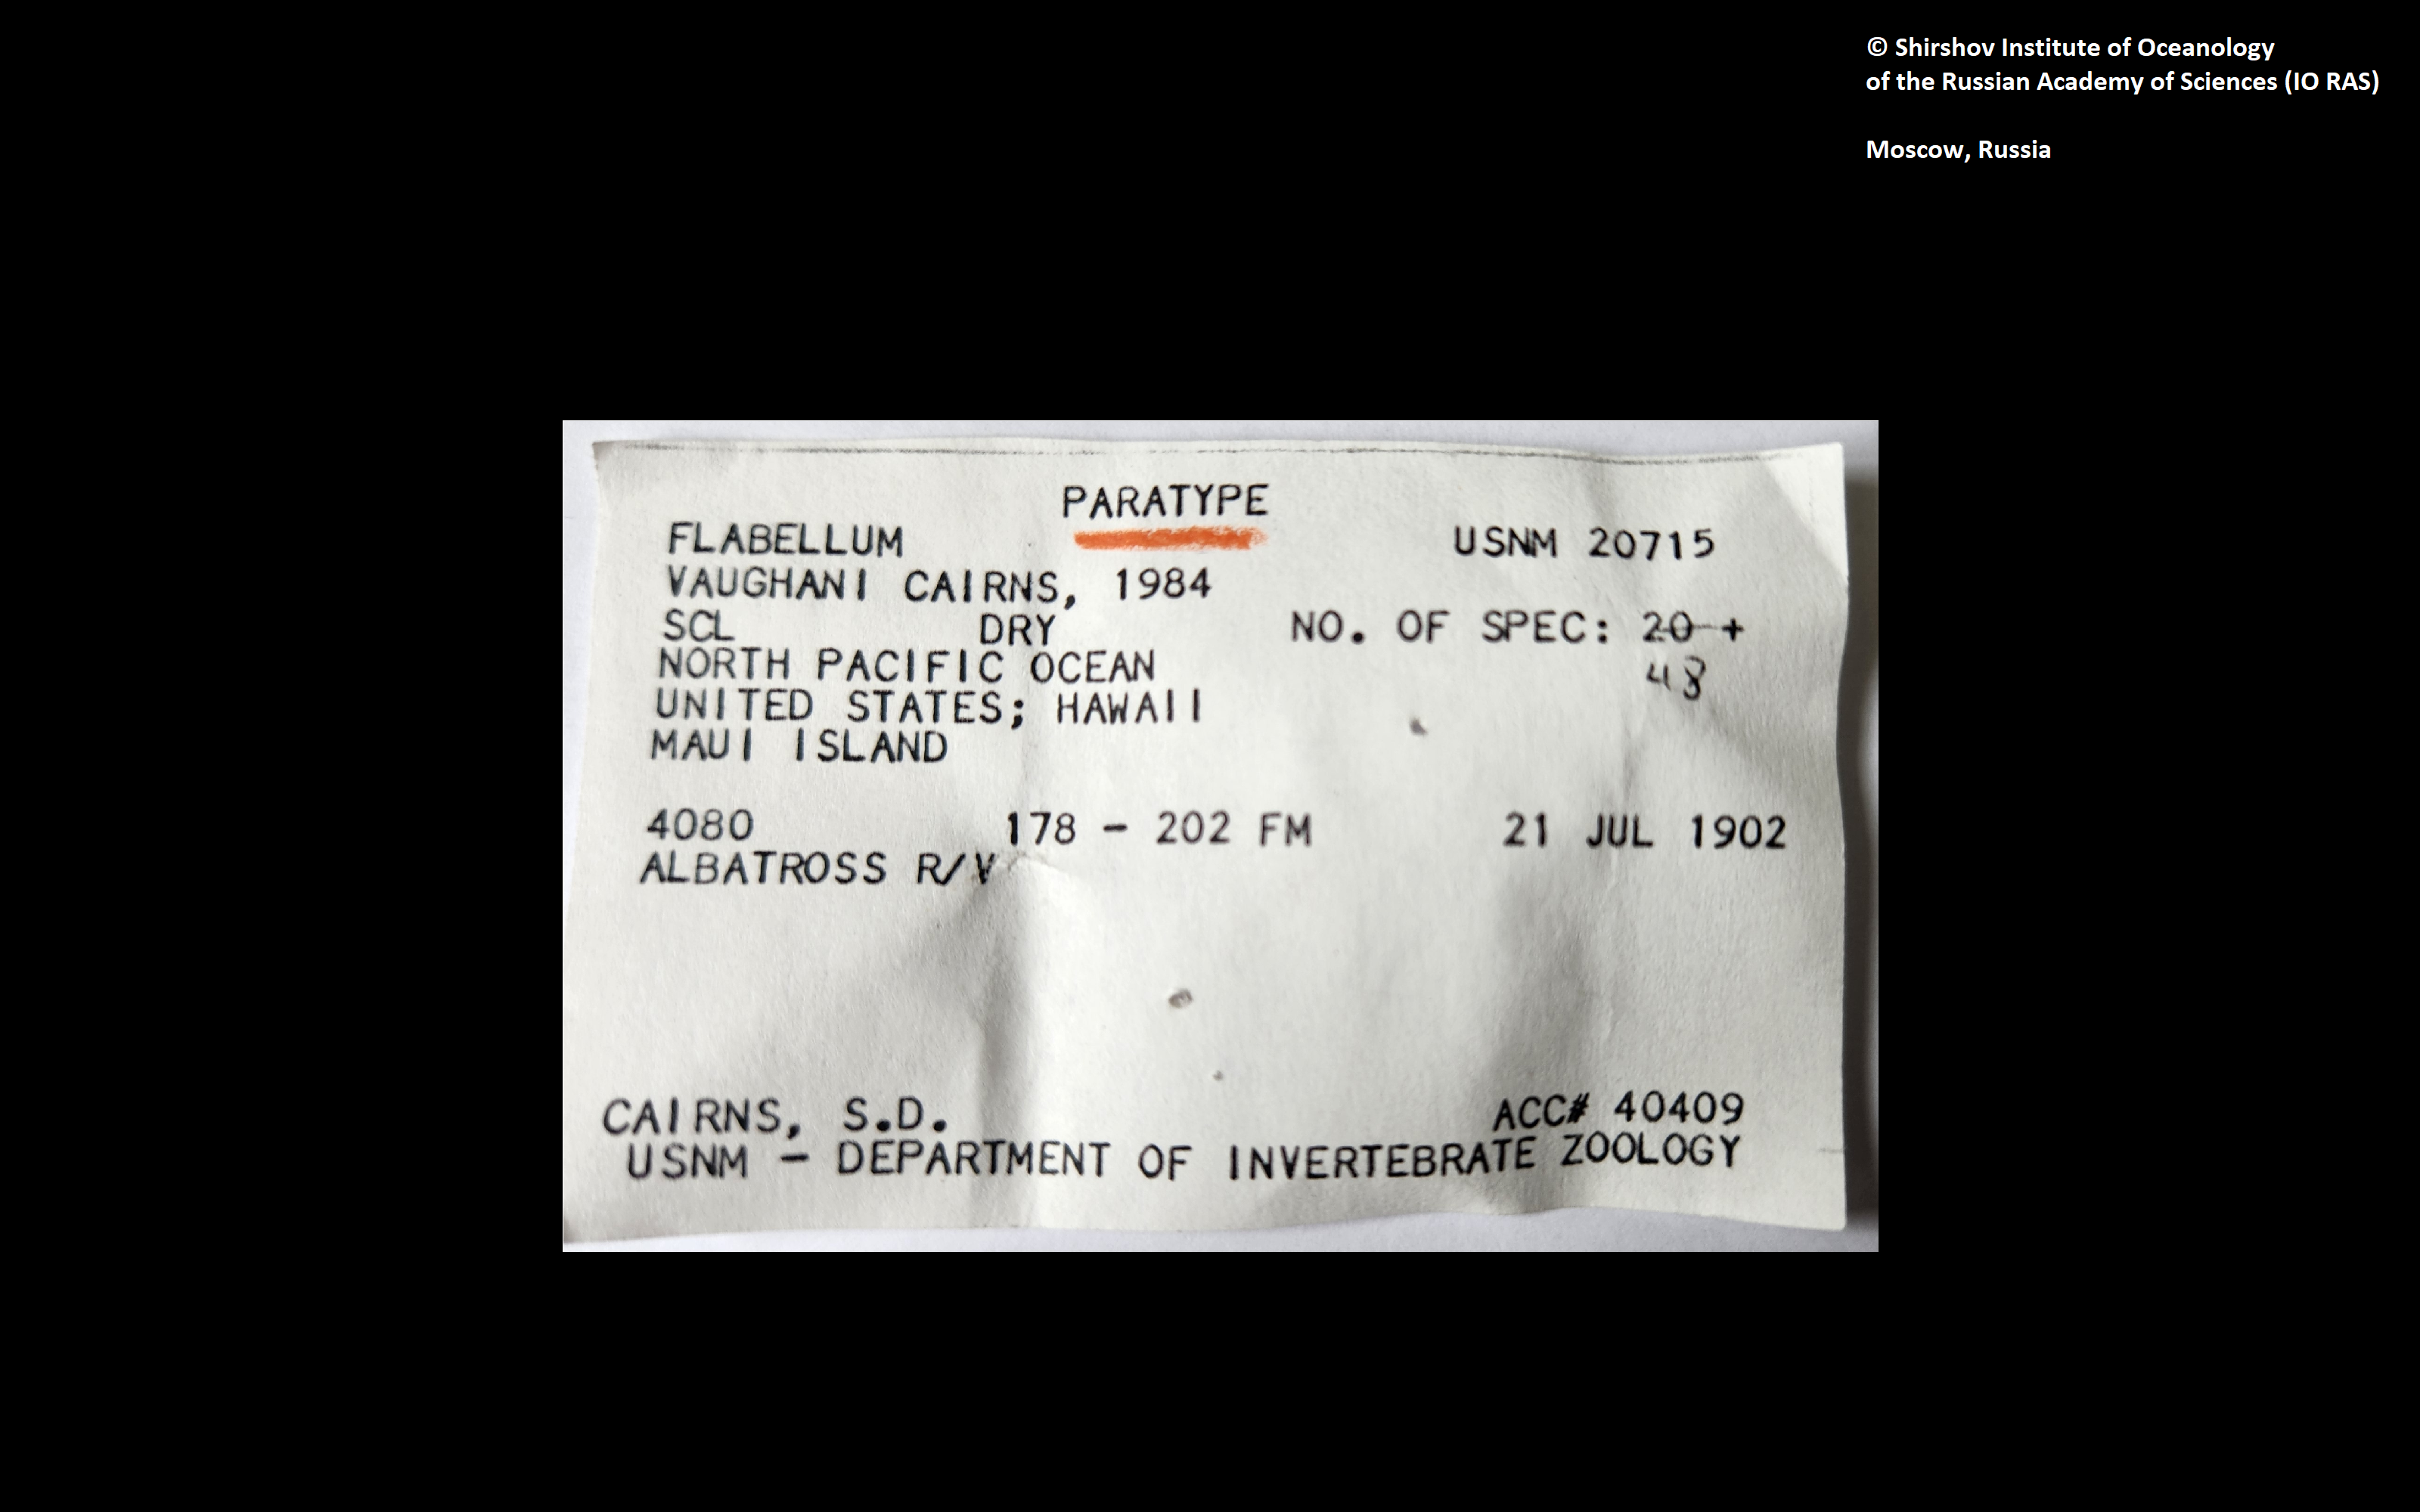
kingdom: Animalia
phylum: Cnidaria
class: Anthozoa
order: Scleractinia
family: Flabellidae
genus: Flabellum
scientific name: Flabellum vaughani
